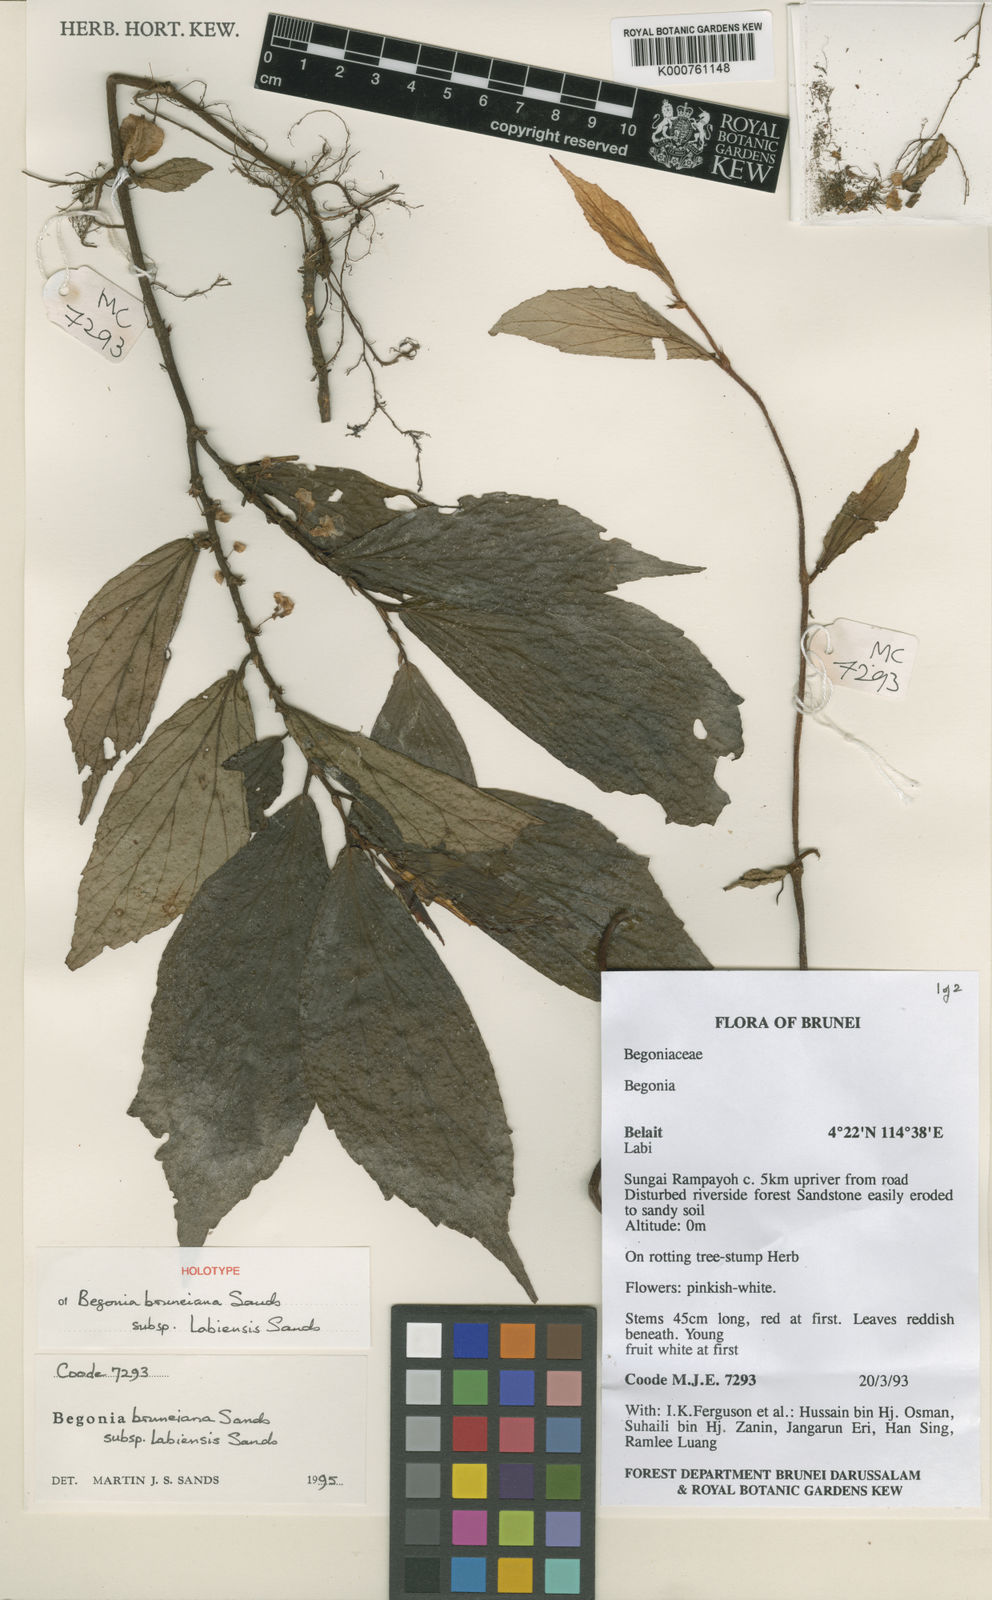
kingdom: Plantae
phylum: Tracheophyta
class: Magnoliopsida
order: Cucurbitales
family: Begoniaceae
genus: Begonia
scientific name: Begonia labiensis
